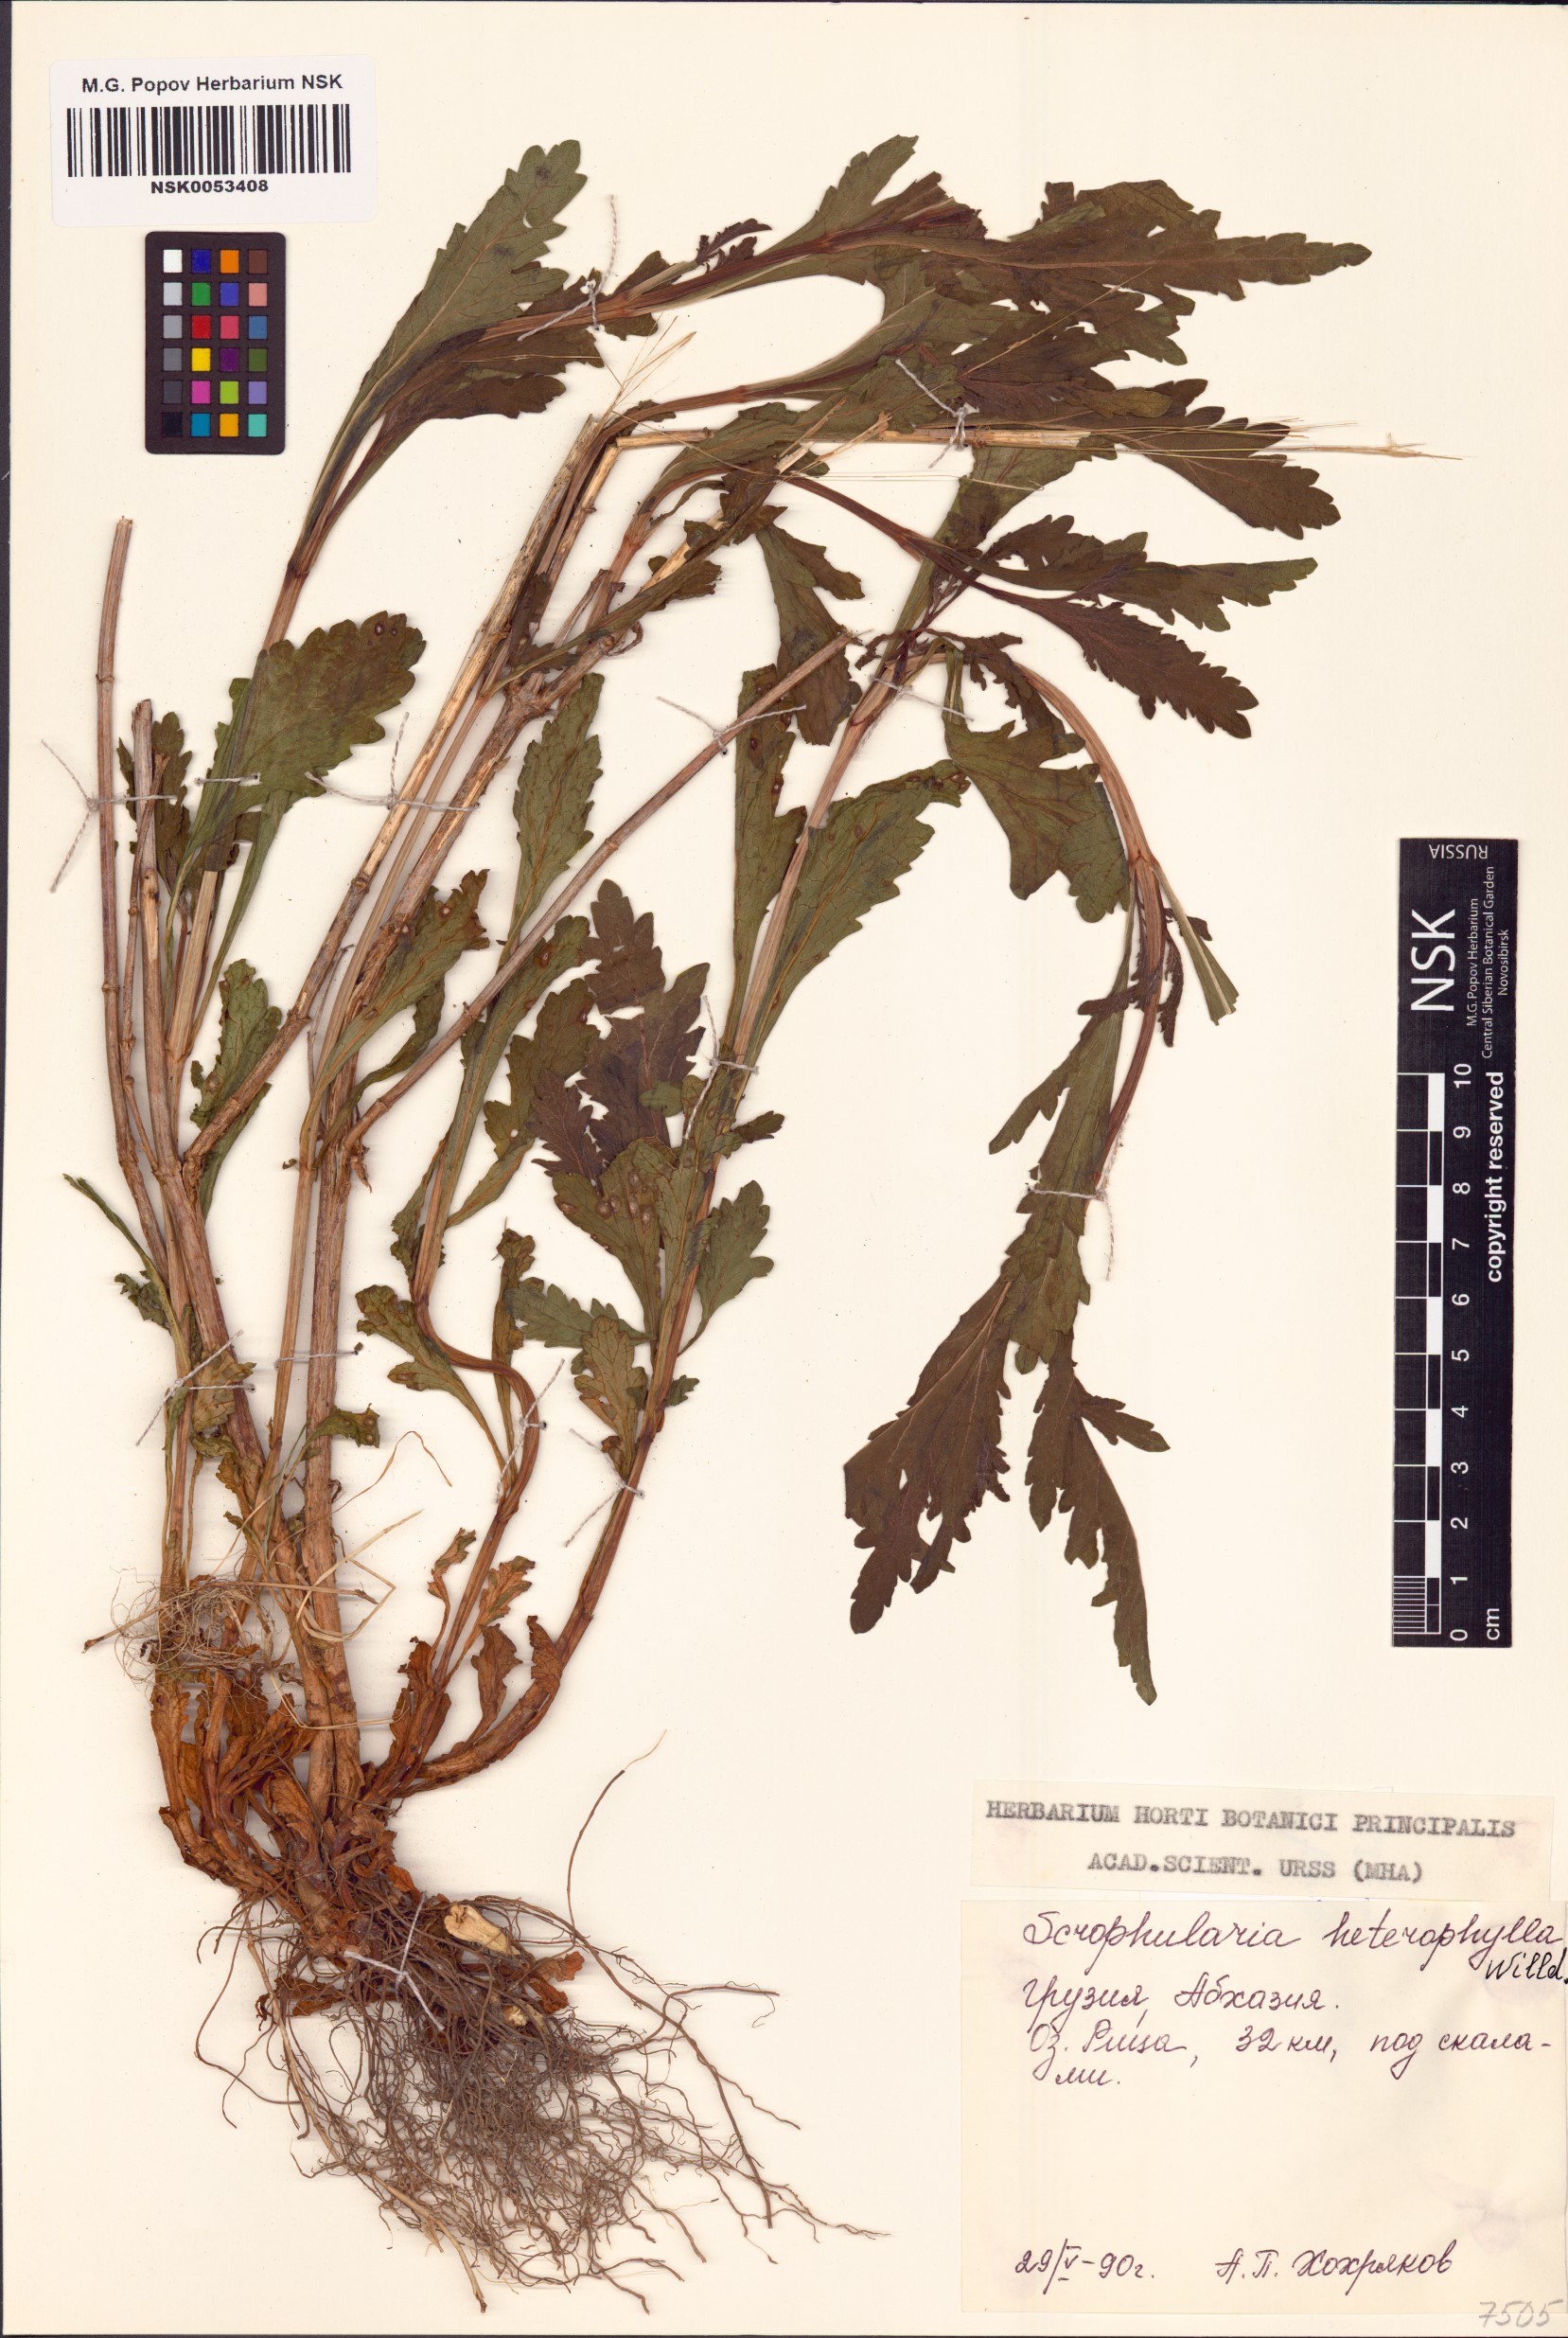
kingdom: Plantae
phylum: Tracheophyta
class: Magnoliopsida
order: Lamiales
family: Scrophulariaceae
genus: Scrophularia
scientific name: Scrophularia heterophylla
